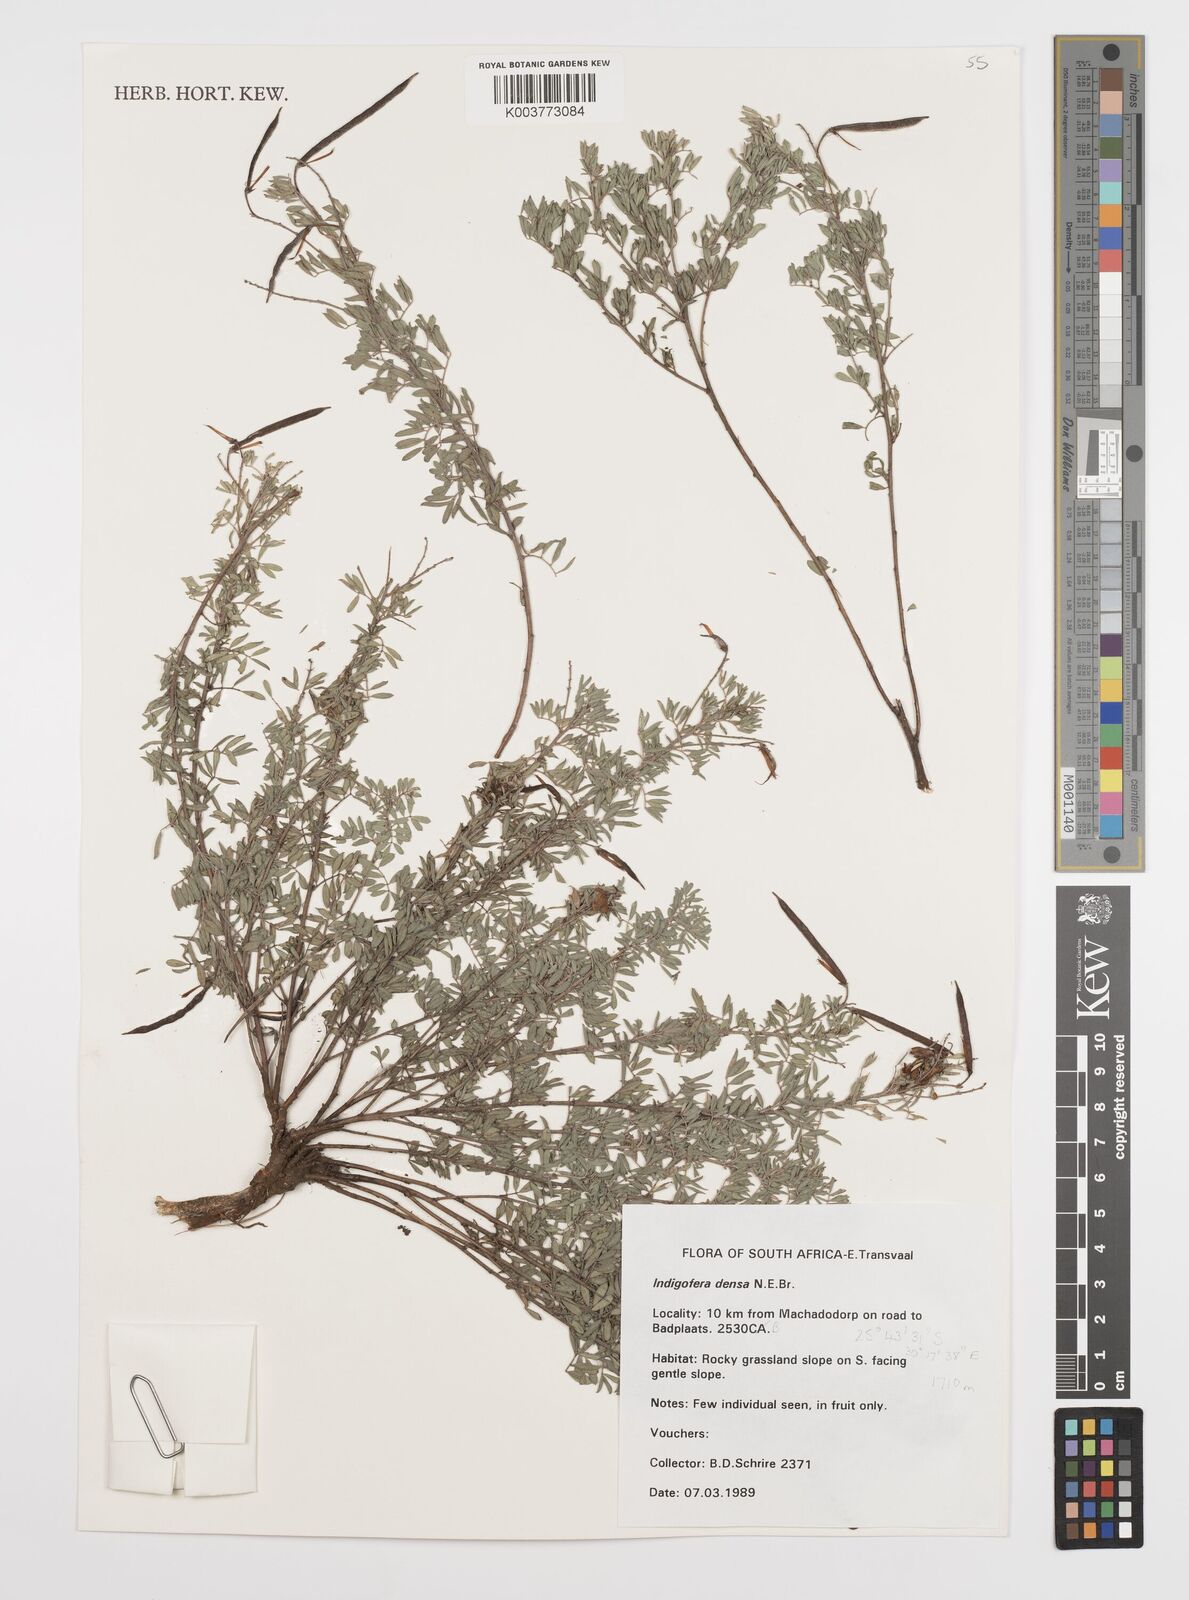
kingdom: Plantae
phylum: Tracheophyta
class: Magnoliopsida
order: Fabales
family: Fabaceae
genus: Indigofera
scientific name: Indigofera
